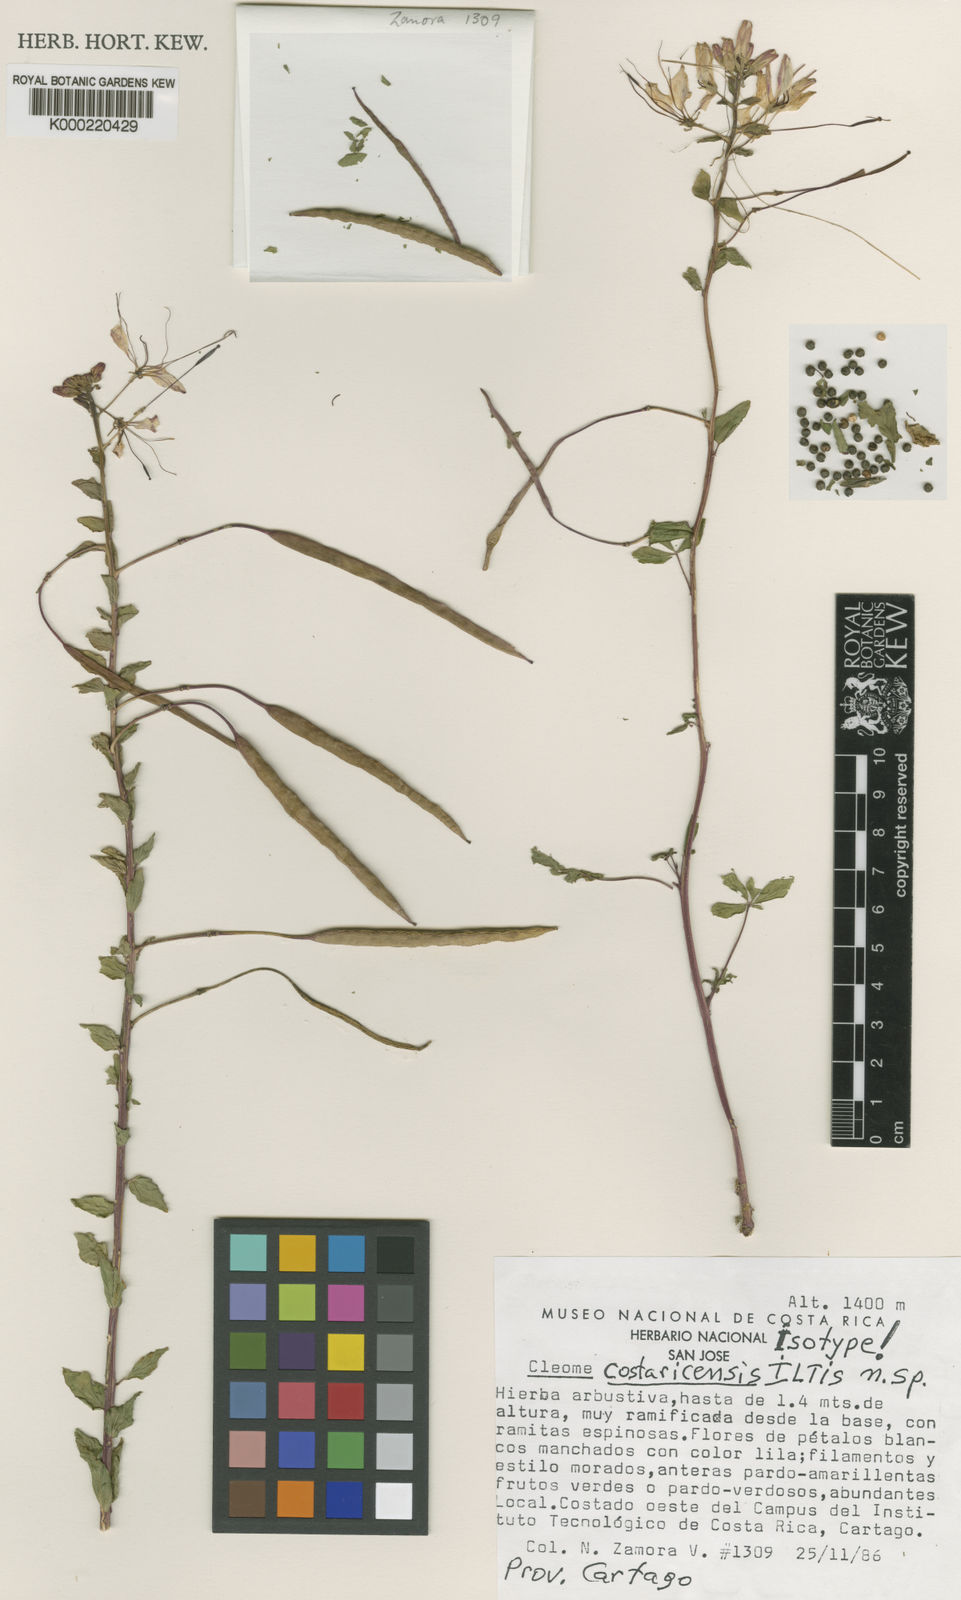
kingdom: Plantae
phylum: Tracheophyta
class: Magnoliopsida
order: Brassicales
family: Cleomaceae
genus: Tarenaya
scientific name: Tarenaya costaricensis
